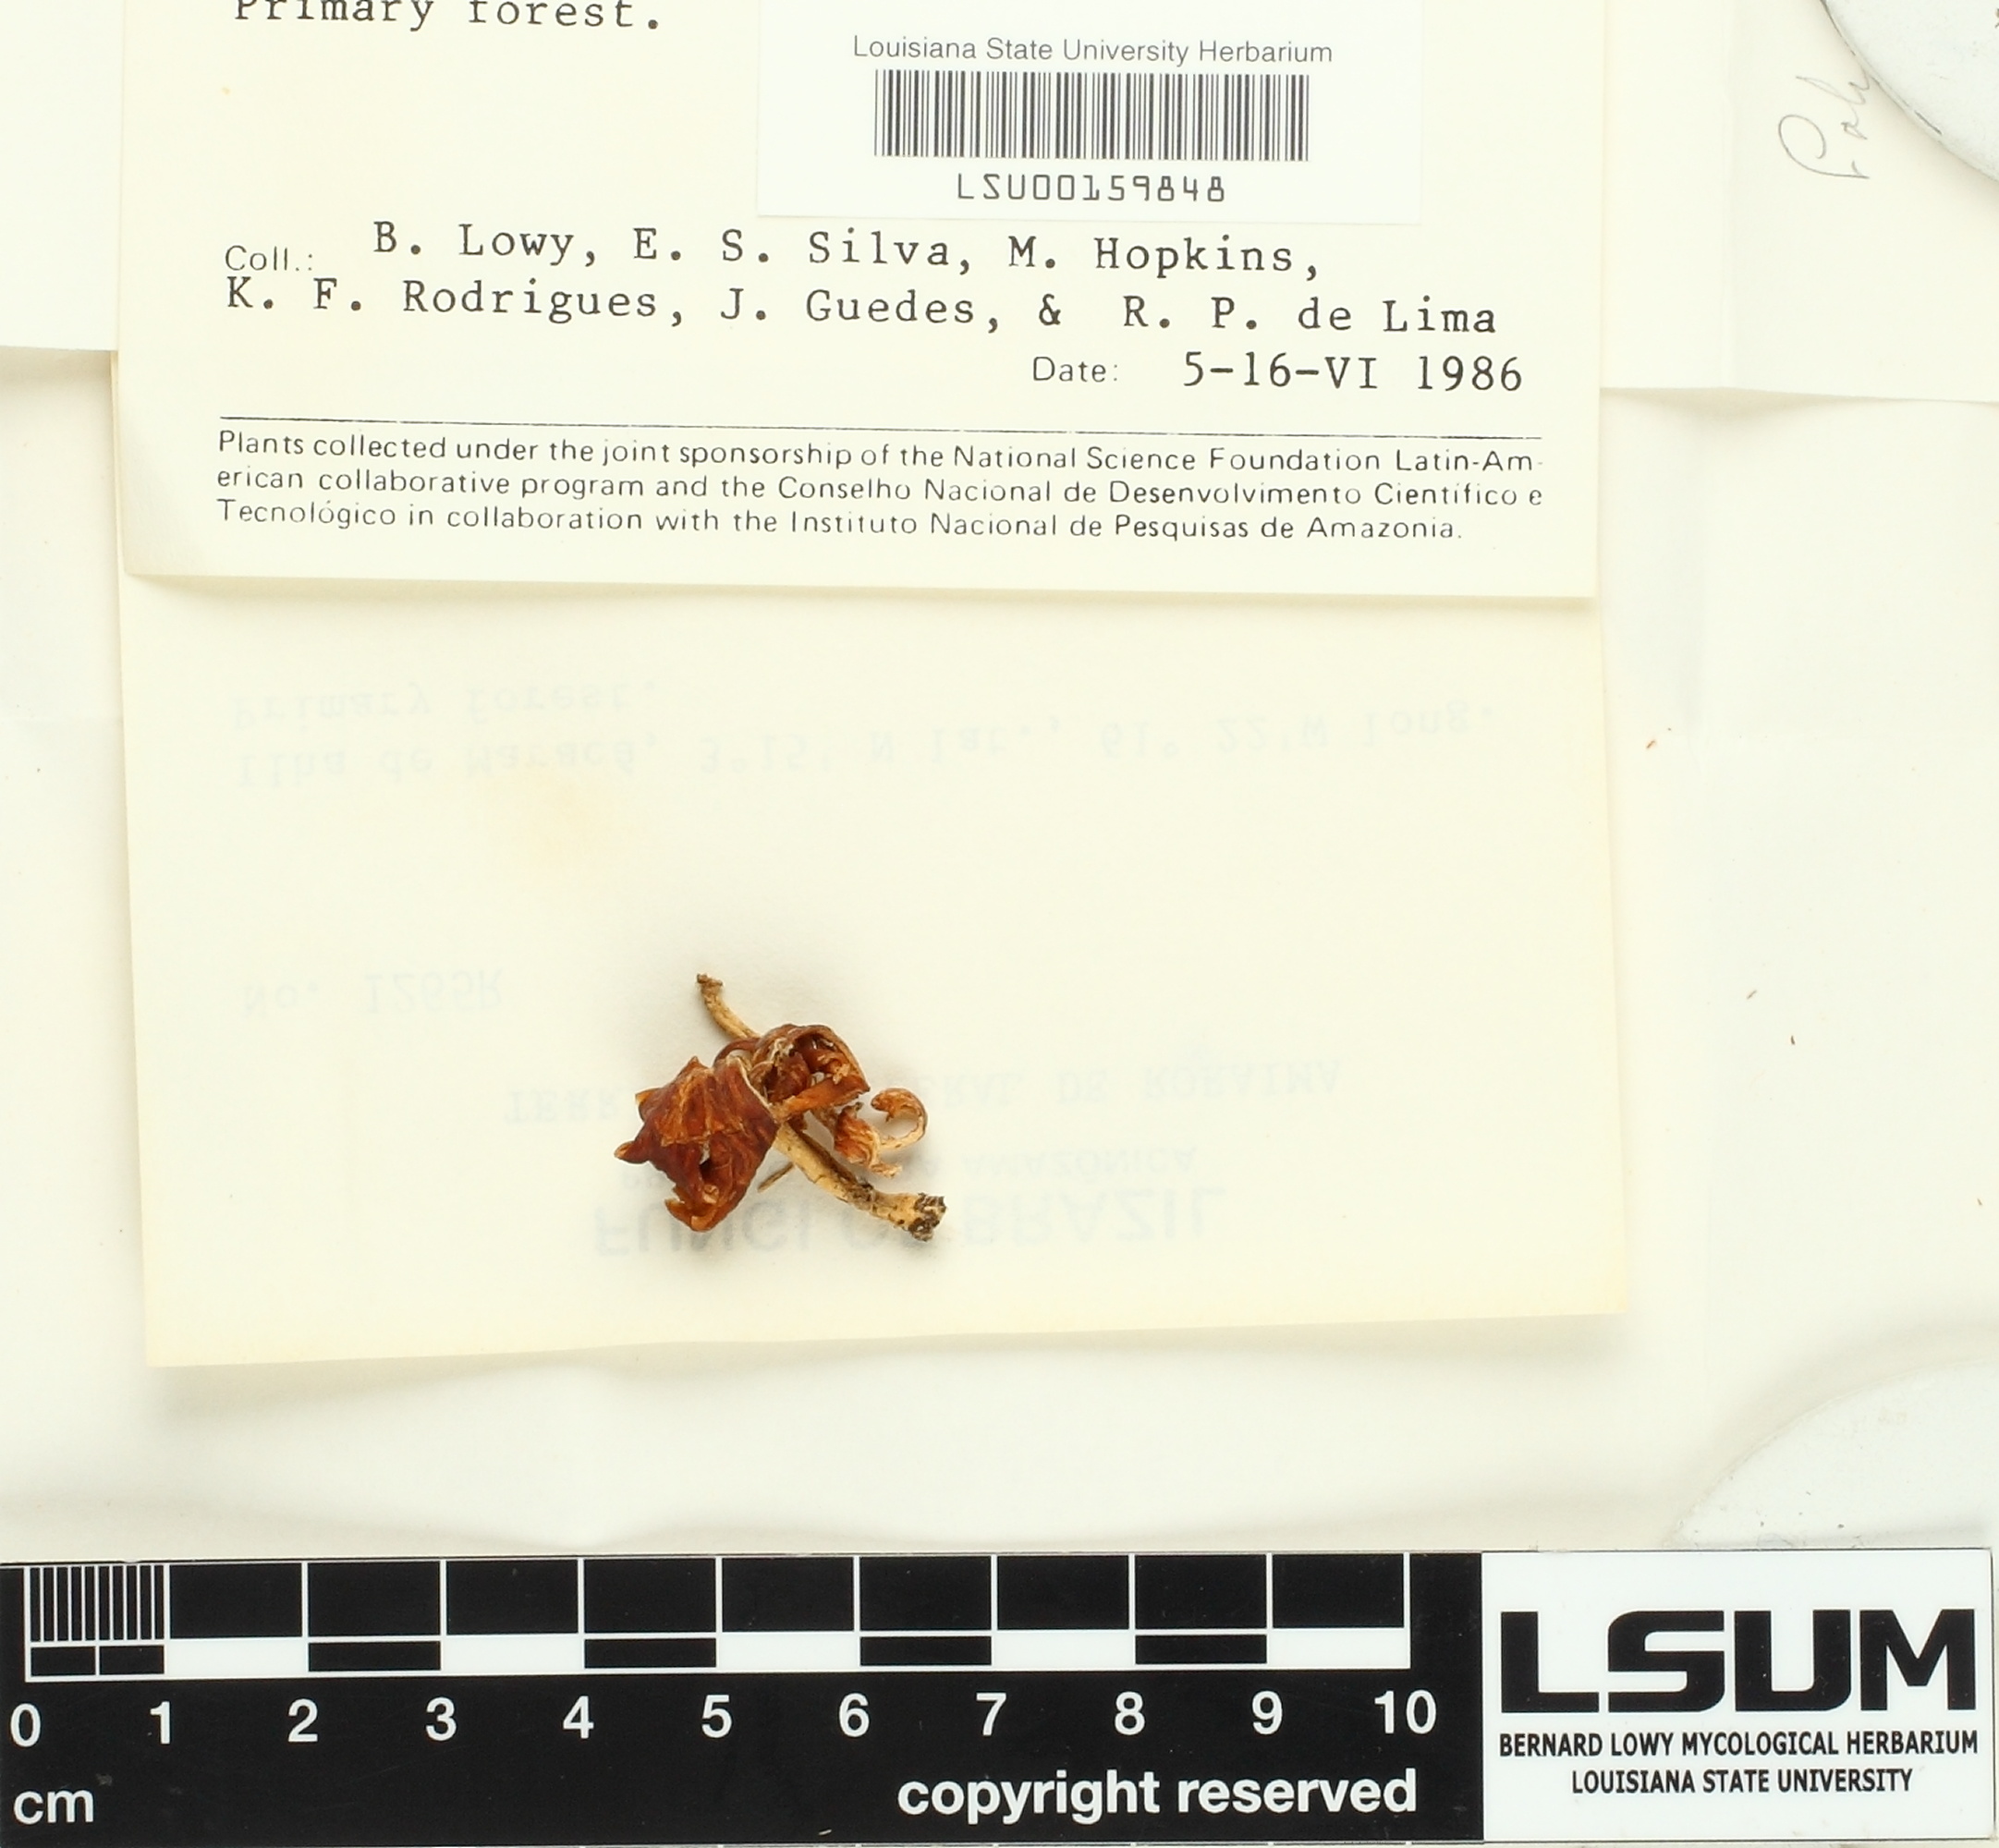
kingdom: Fungi
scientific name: Fungi
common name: Fungi
